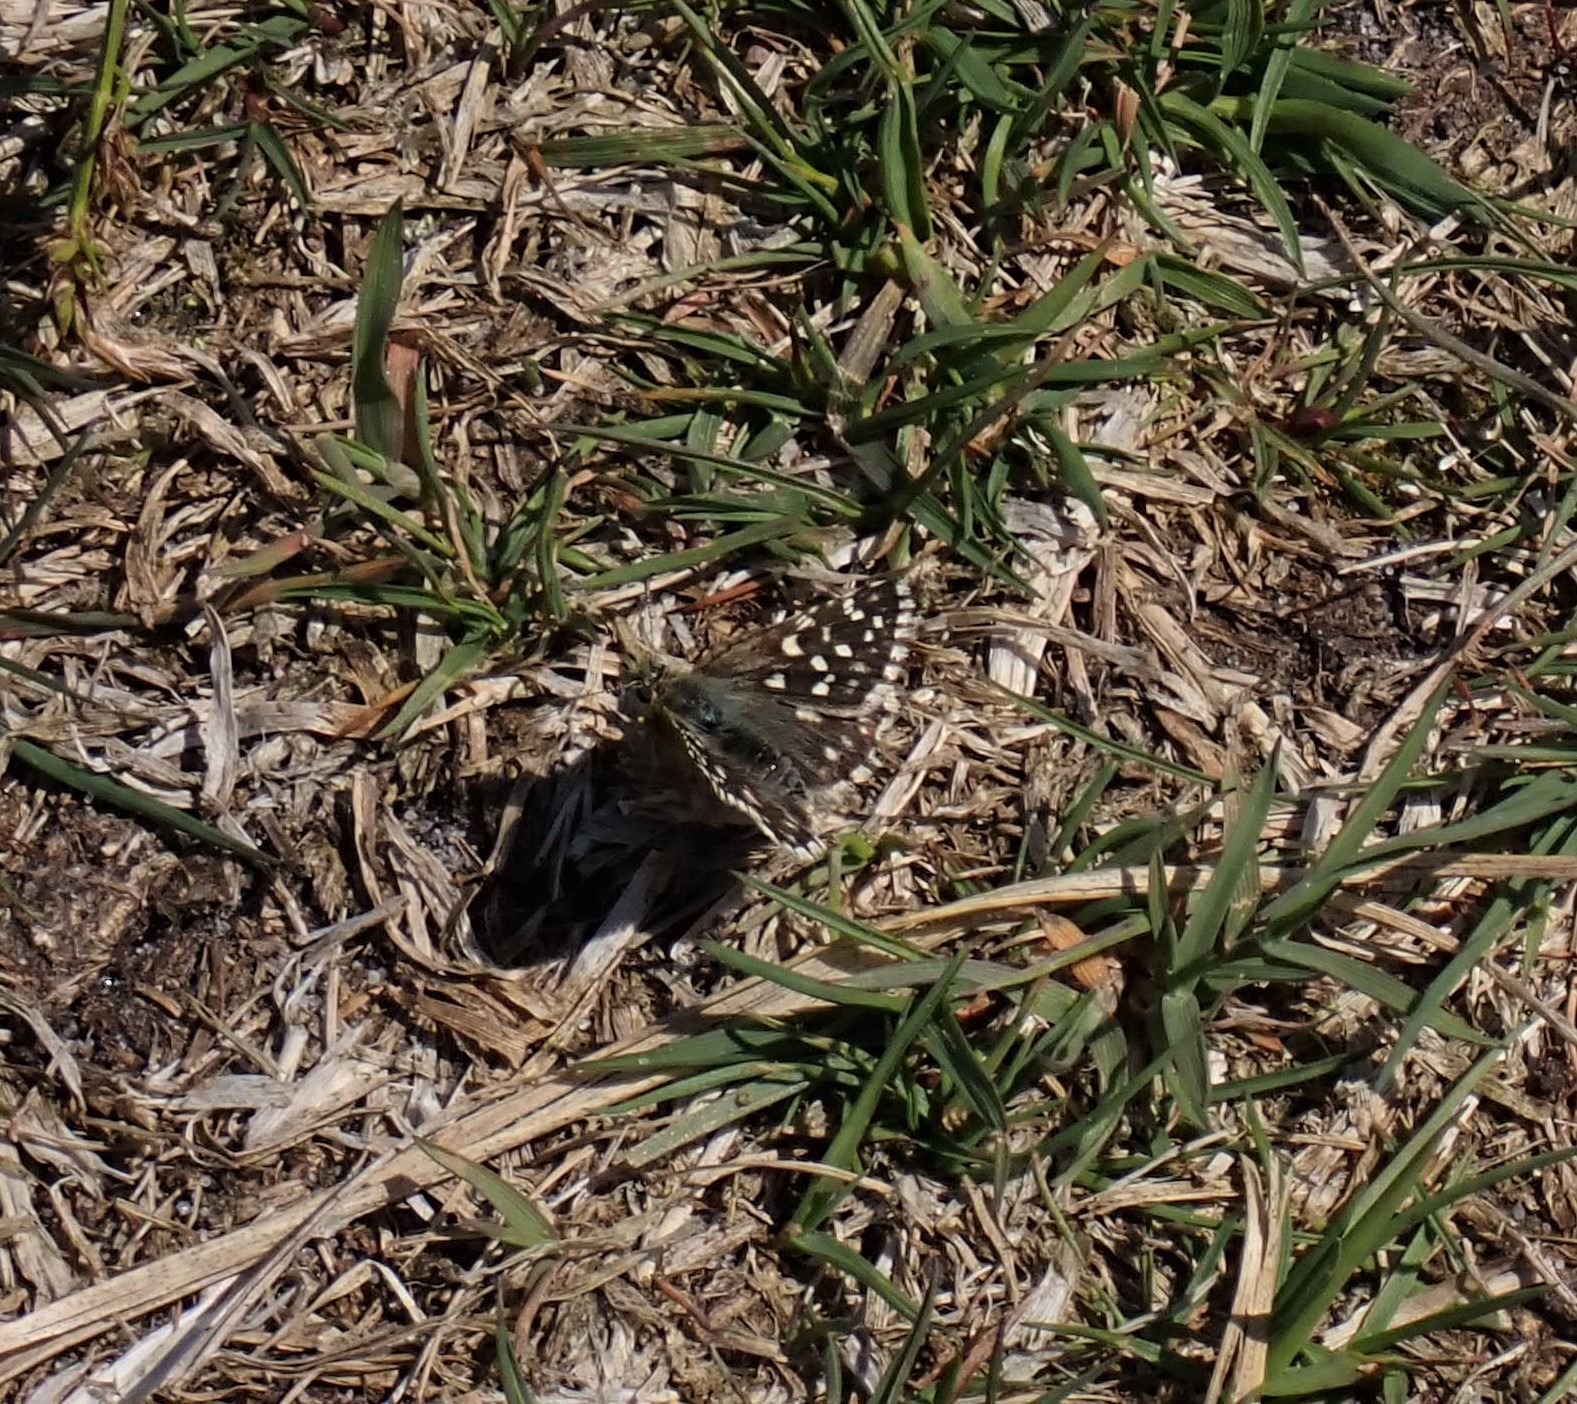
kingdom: Animalia
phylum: Arthropoda
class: Insecta
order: Lepidoptera
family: Hesperiidae
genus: Pyrgus
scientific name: Pyrgus malvae
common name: Spættet bredpande
